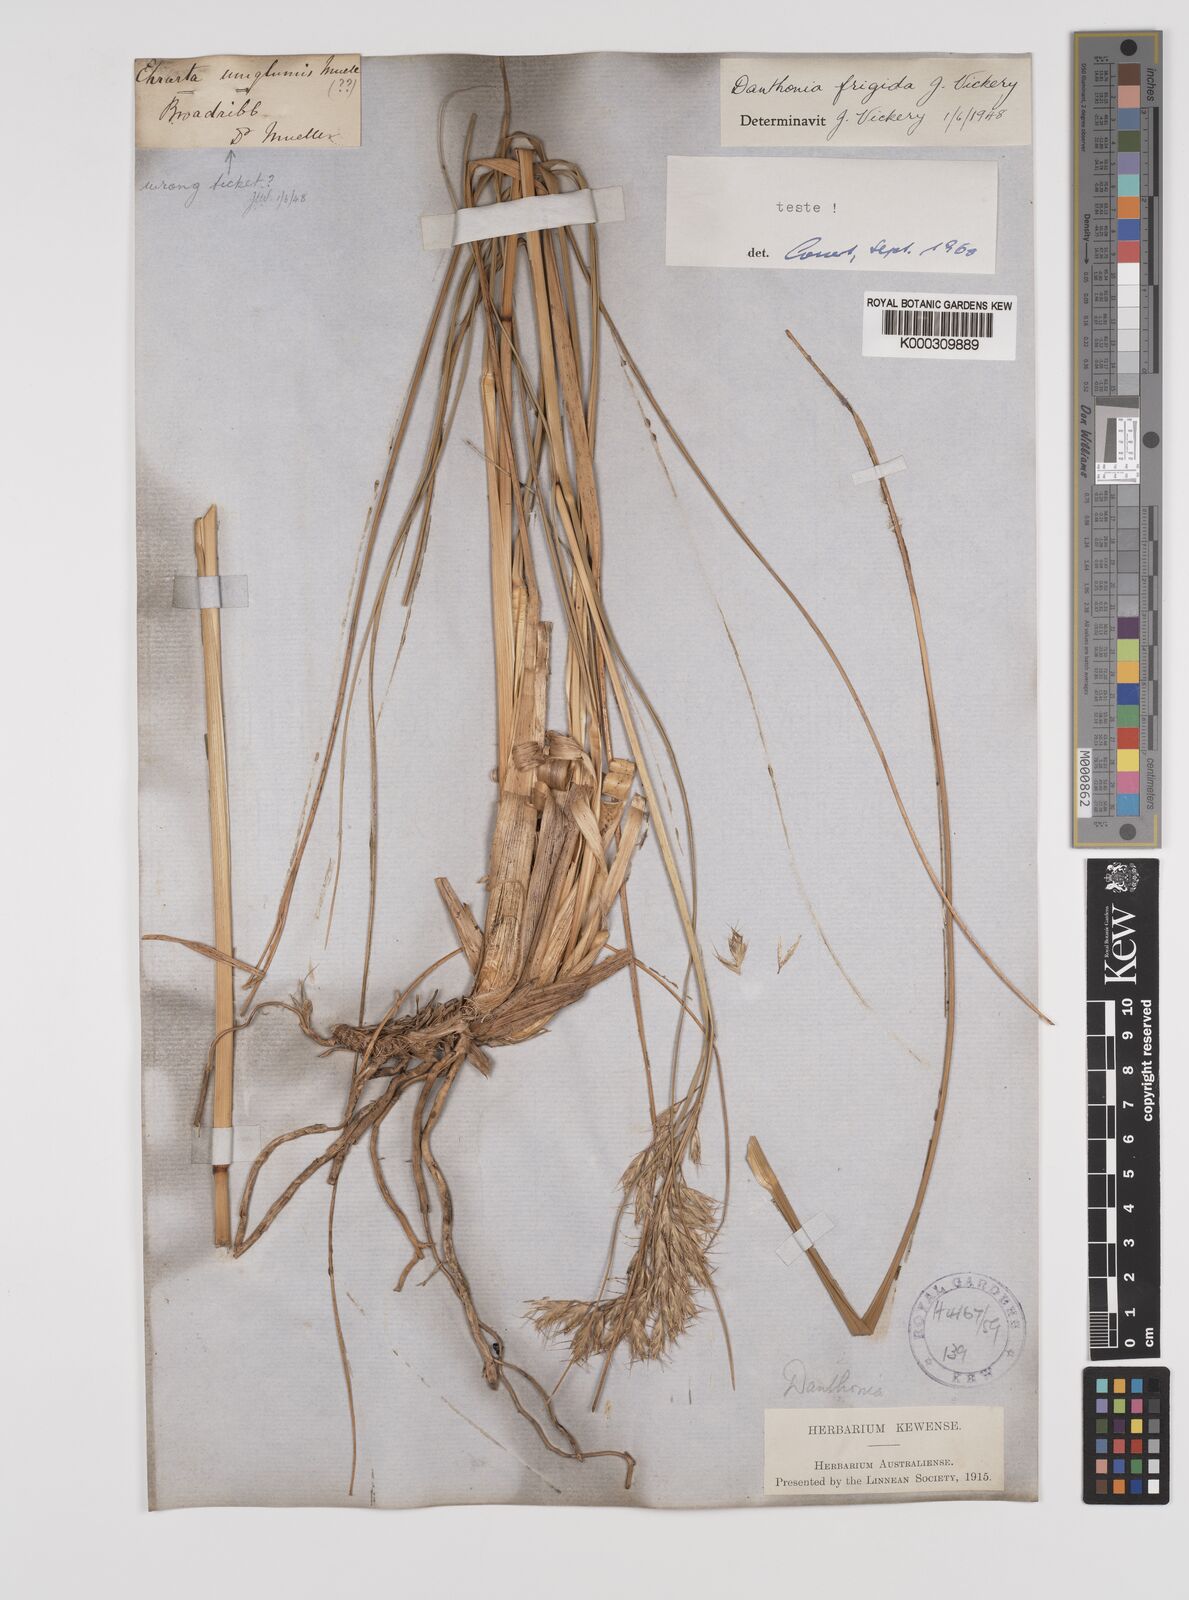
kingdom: Plantae
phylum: Tracheophyta
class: Liliopsida
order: Poales
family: Poaceae
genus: Chionochloa
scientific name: Chionochloa flavicans
